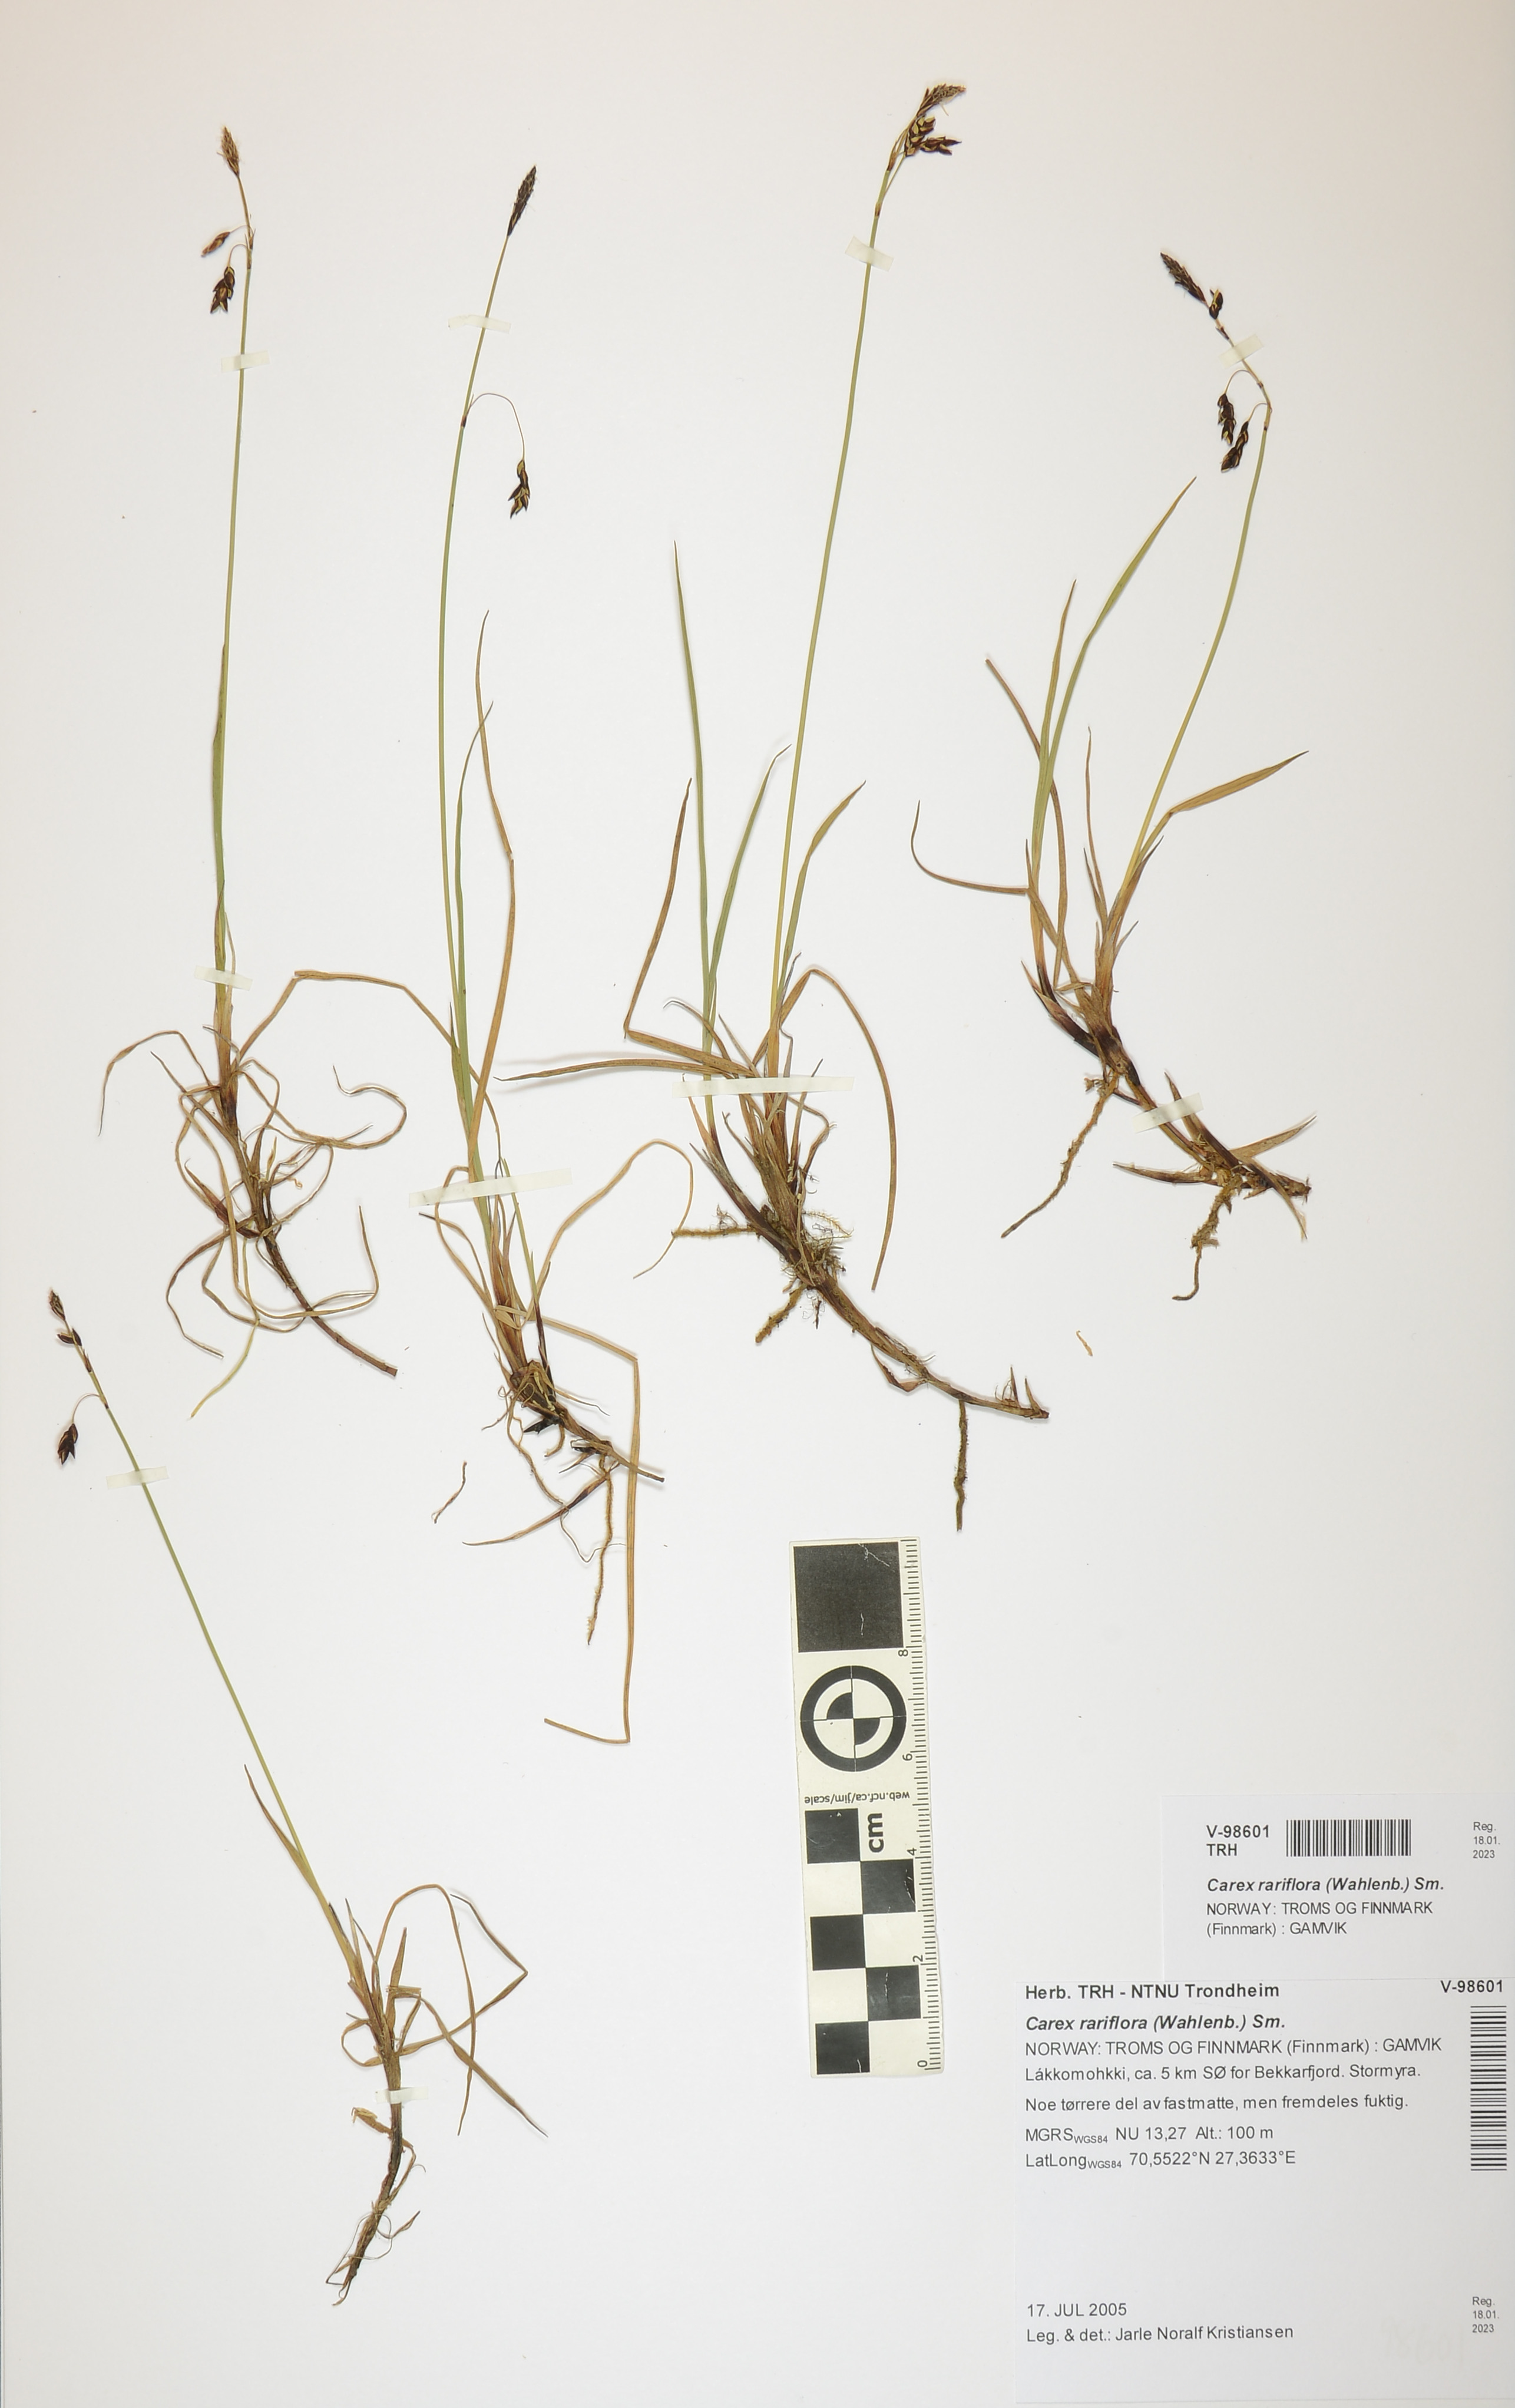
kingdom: Plantae
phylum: Tracheophyta
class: Liliopsida
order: Poales
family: Cyperaceae
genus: Carex
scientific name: Carex rariflora
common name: Loose-flowered alpine sedge
